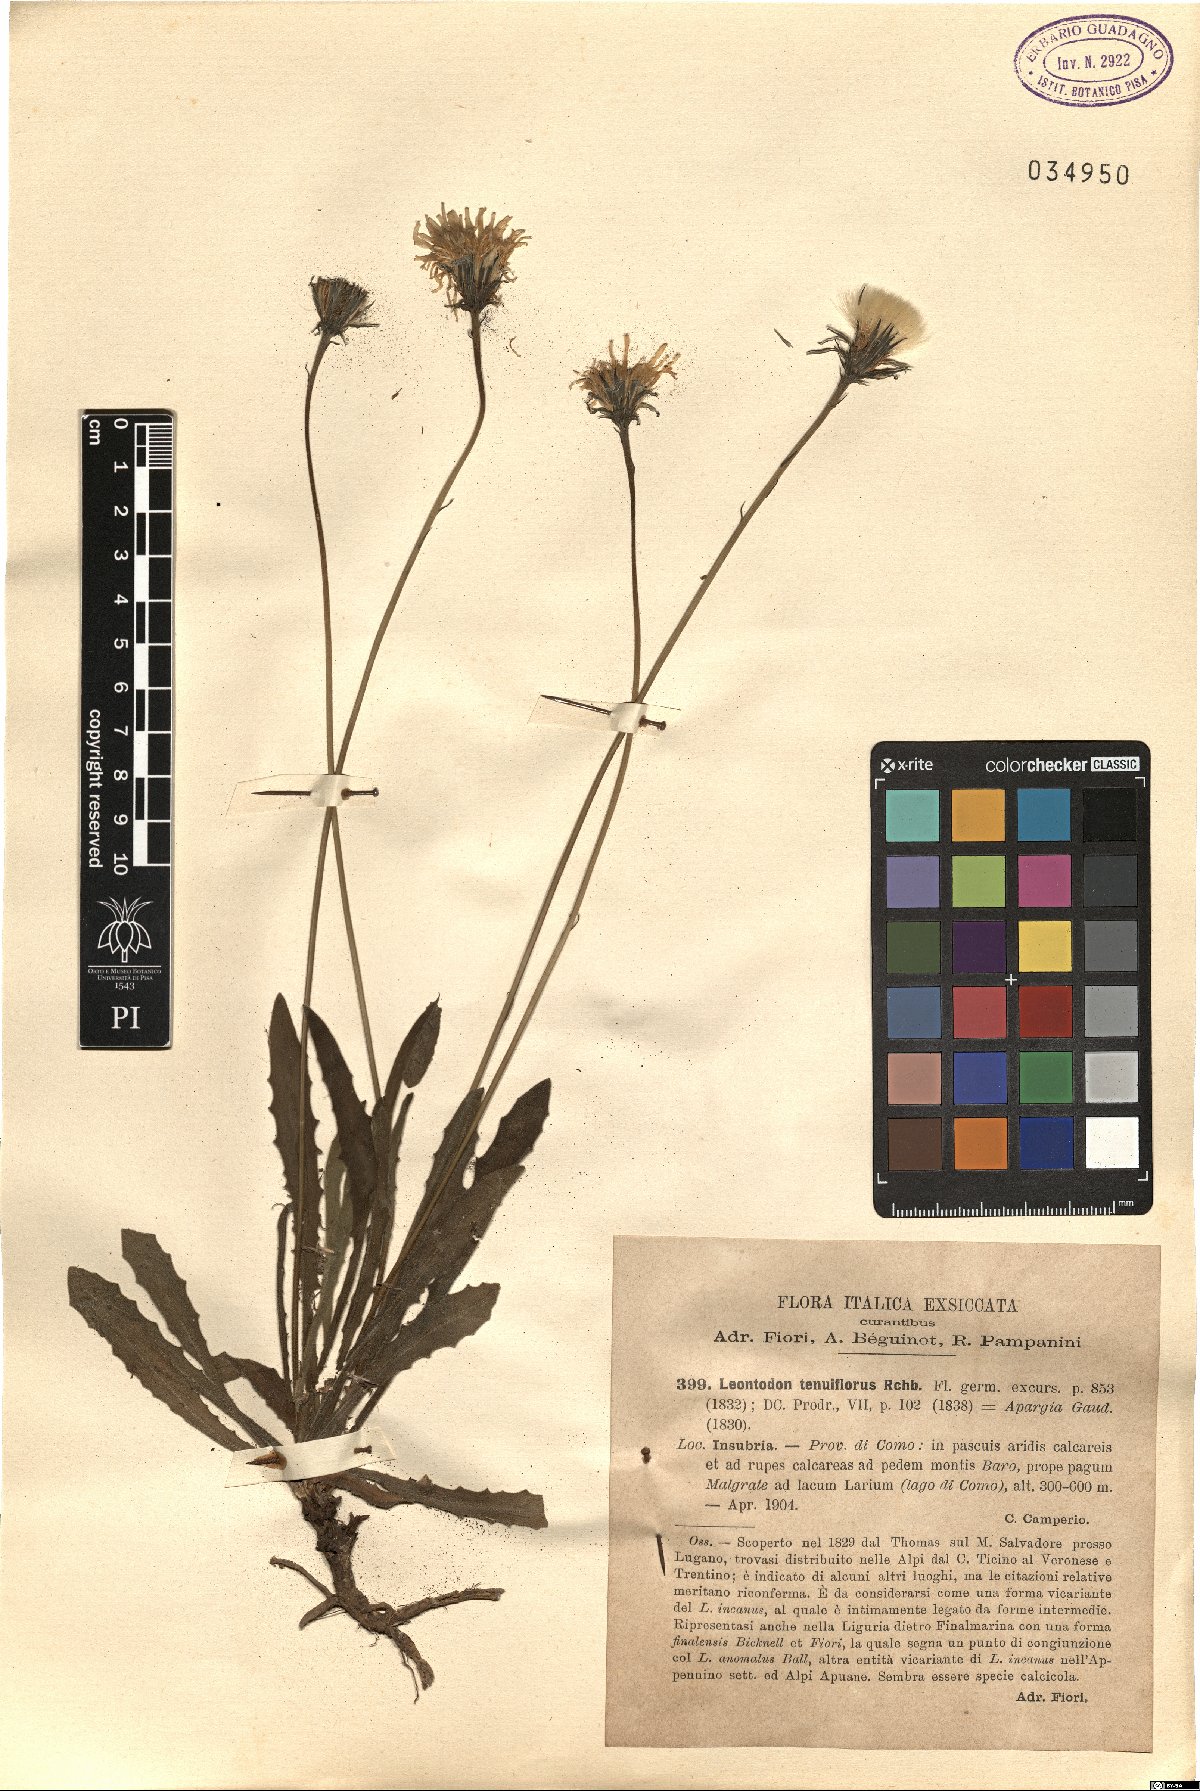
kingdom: Plantae
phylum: Tracheophyta
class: Magnoliopsida
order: Asterales
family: Asteraceae
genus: Leontodon
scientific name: Leontodon tenuiflorus
